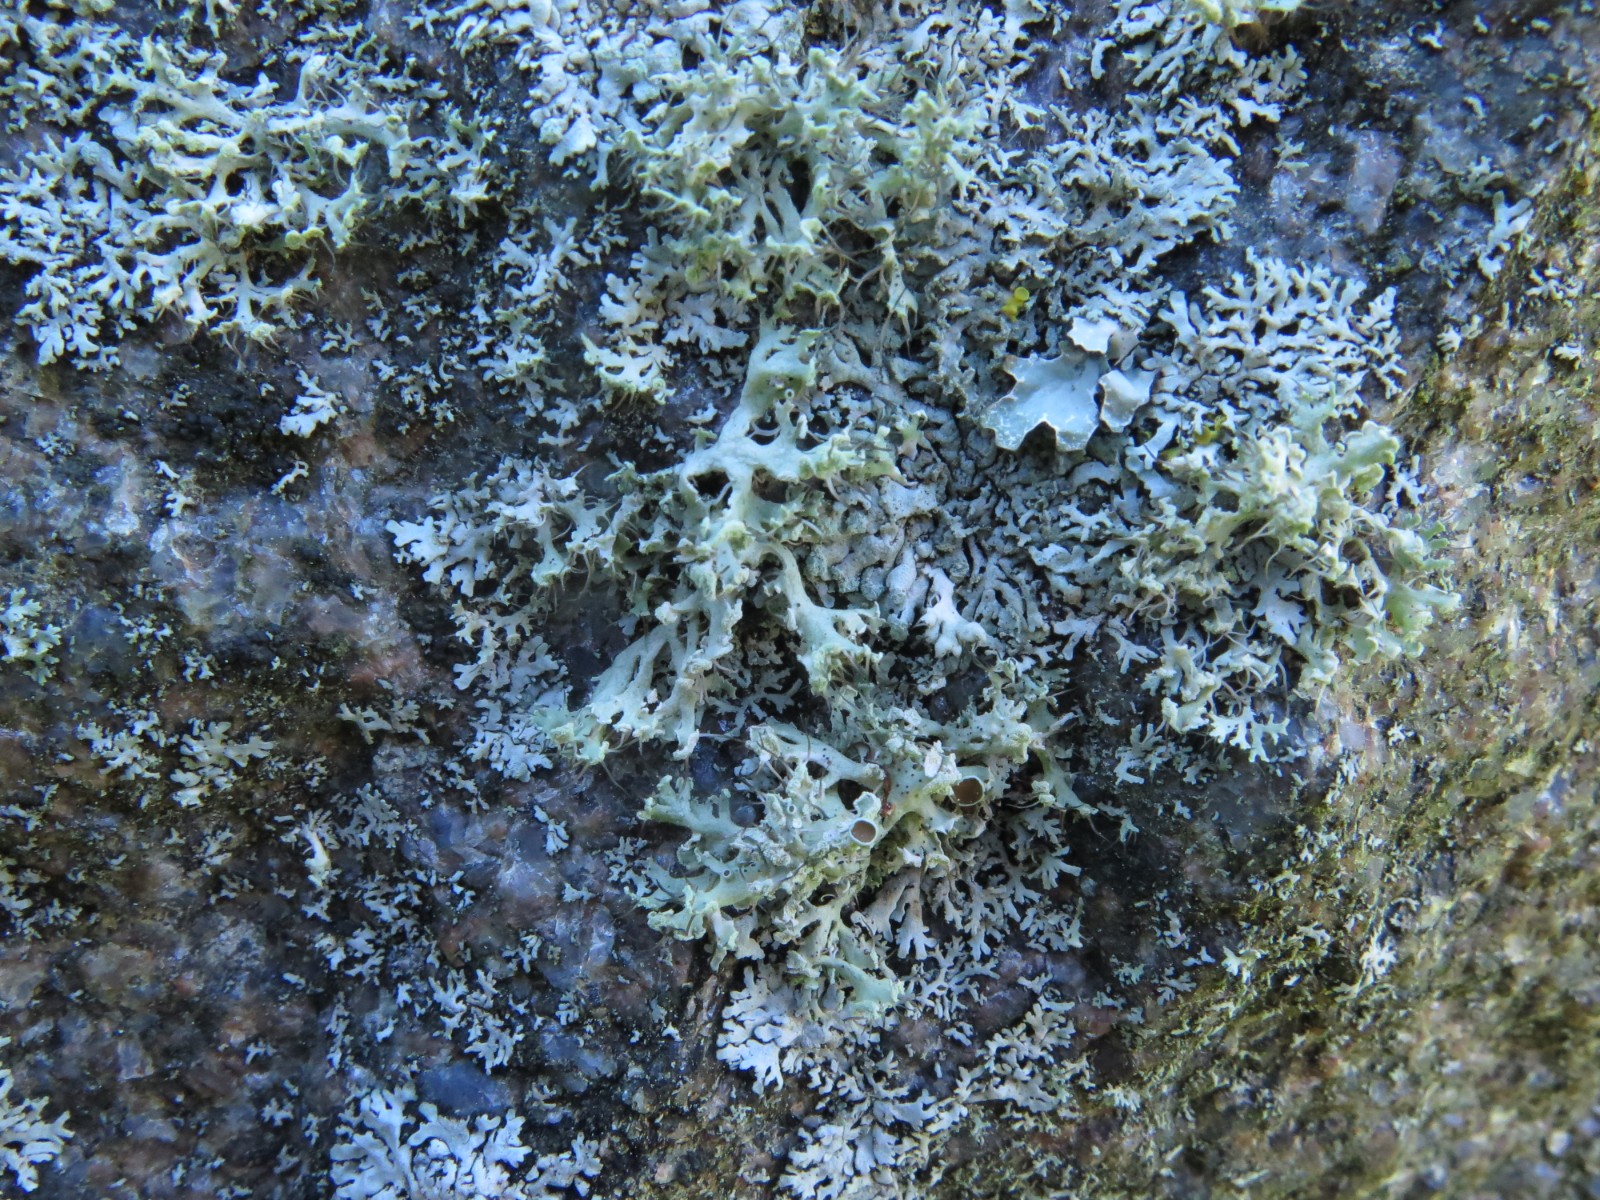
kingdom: Fungi
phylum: Ascomycota
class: Lecanoromycetes
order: Caliciales
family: Physciaceae
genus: Physcia
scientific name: Physcia tenella
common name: spæd rosetlav
